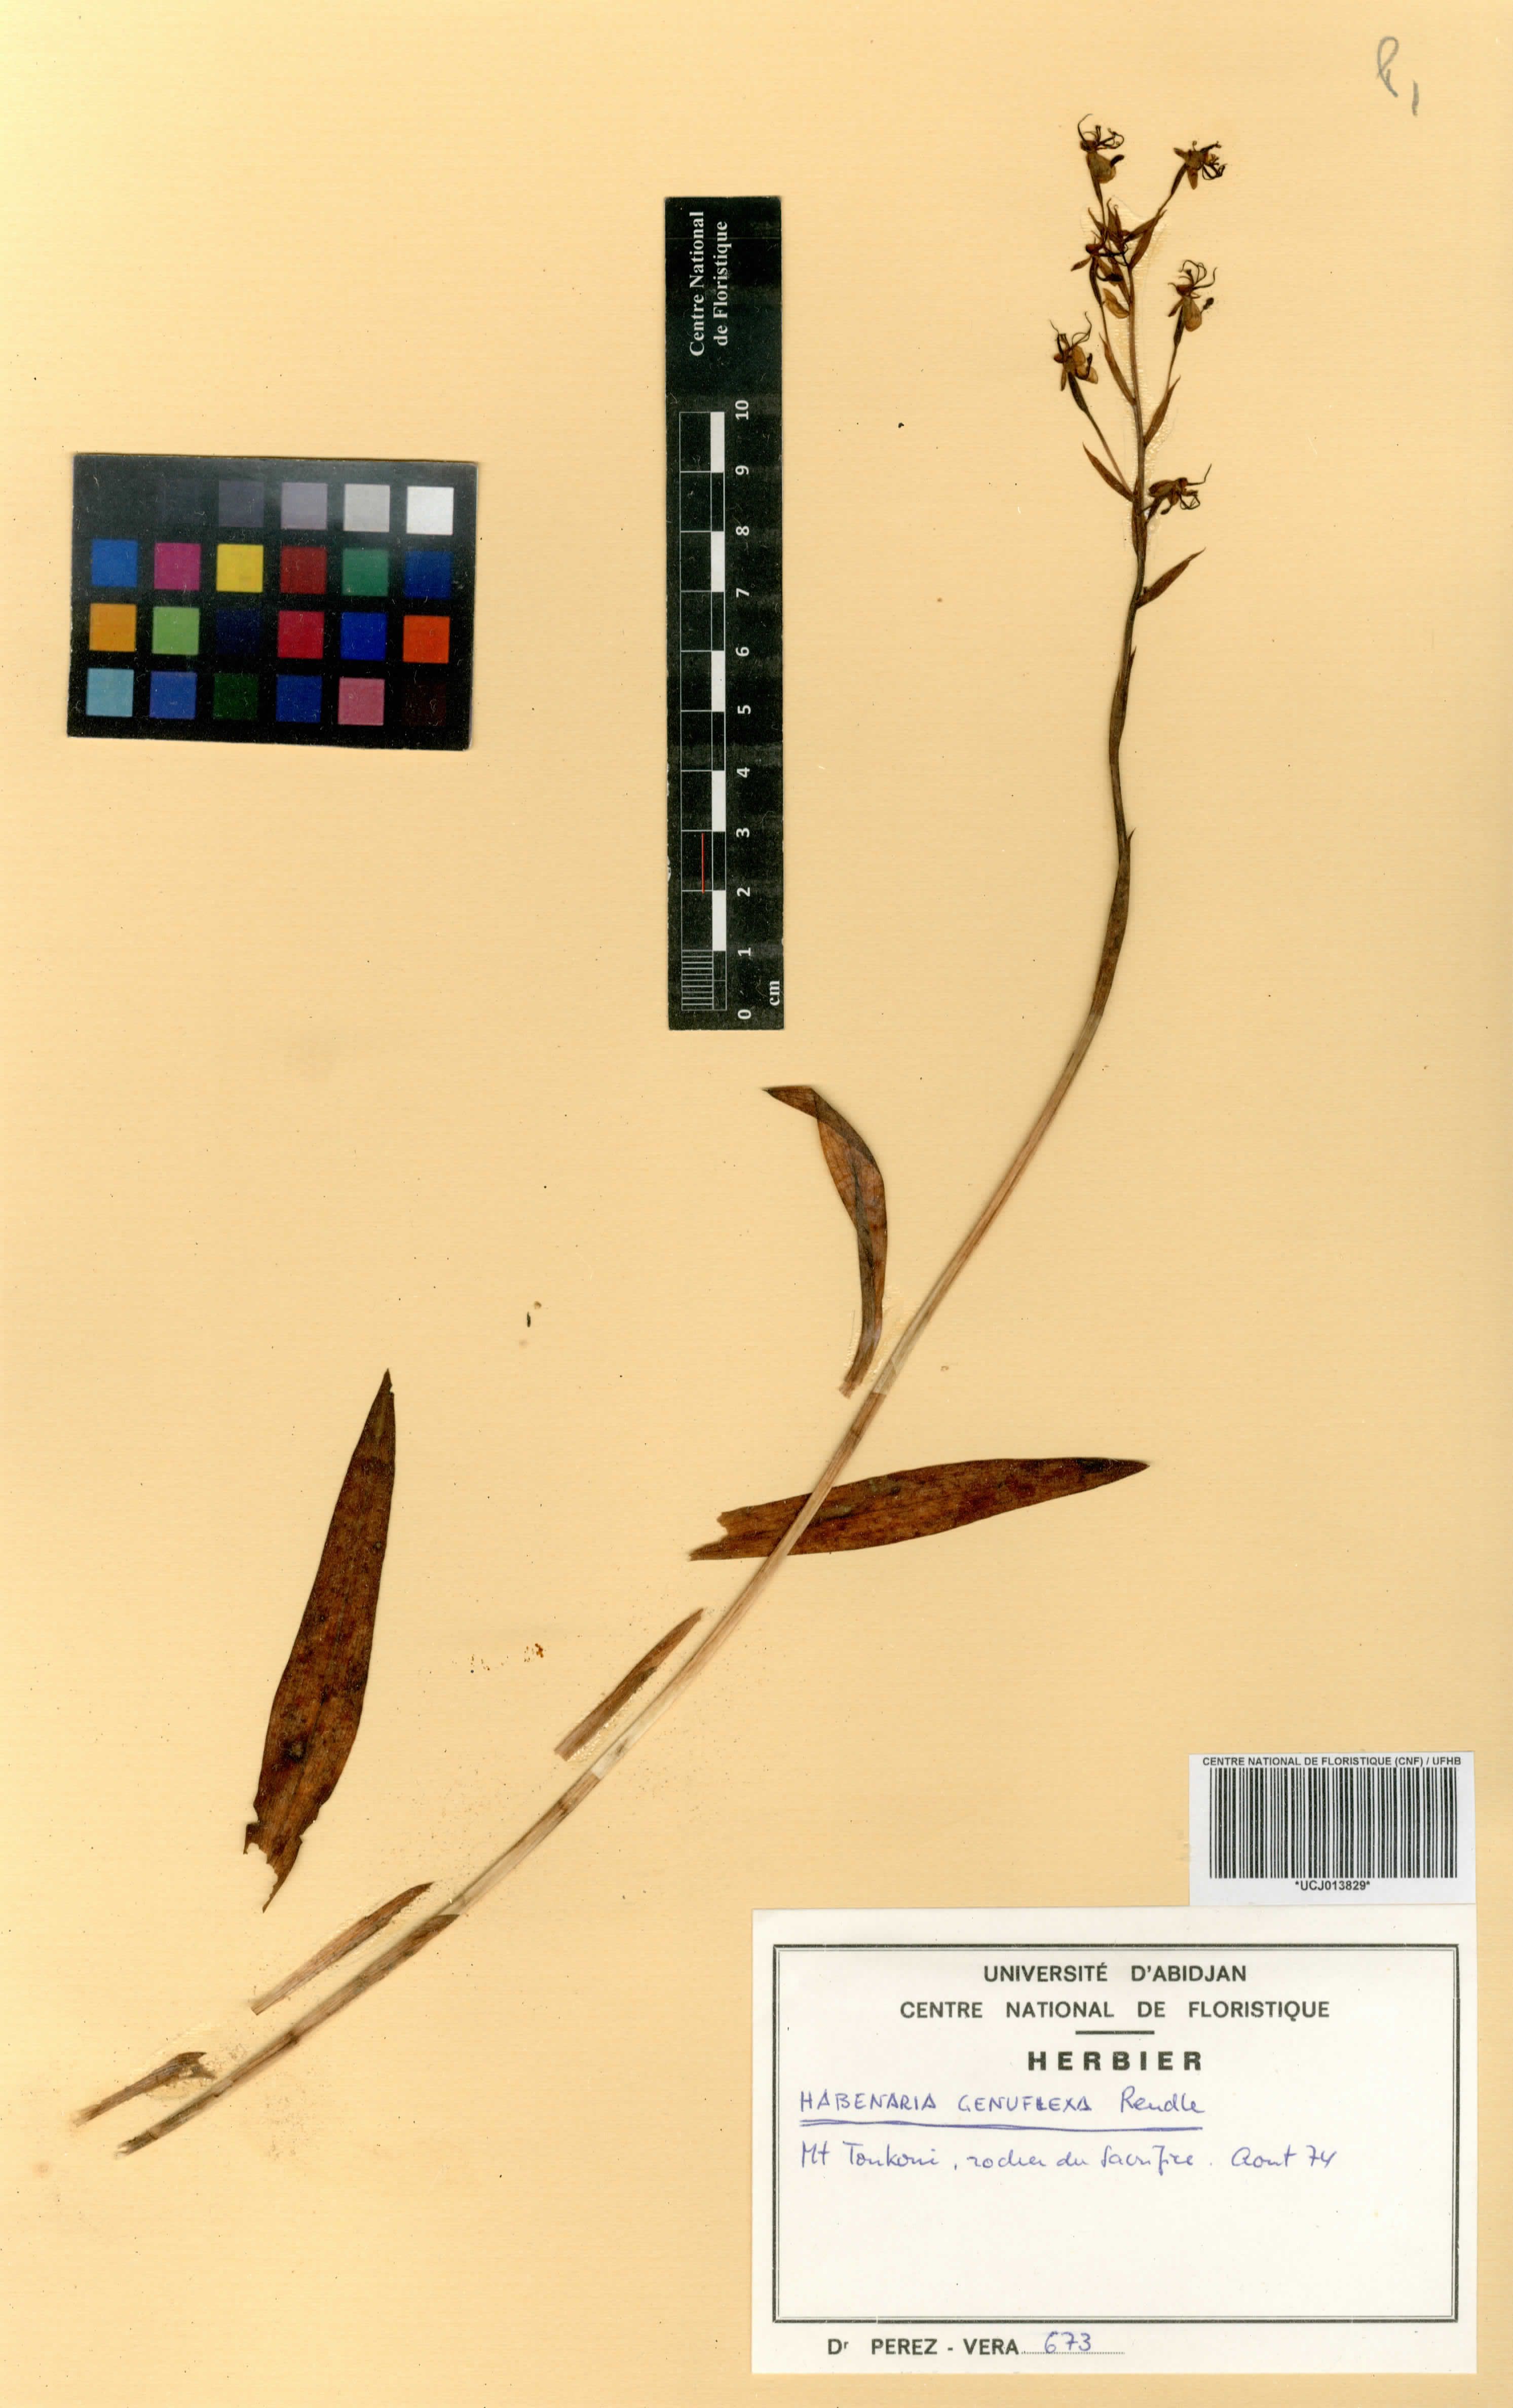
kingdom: Plantae
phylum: Tracheophyta
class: Liliopsida
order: Asparagales
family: Orchidaceae
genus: Habenaria
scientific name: Habenaria genuflexa
